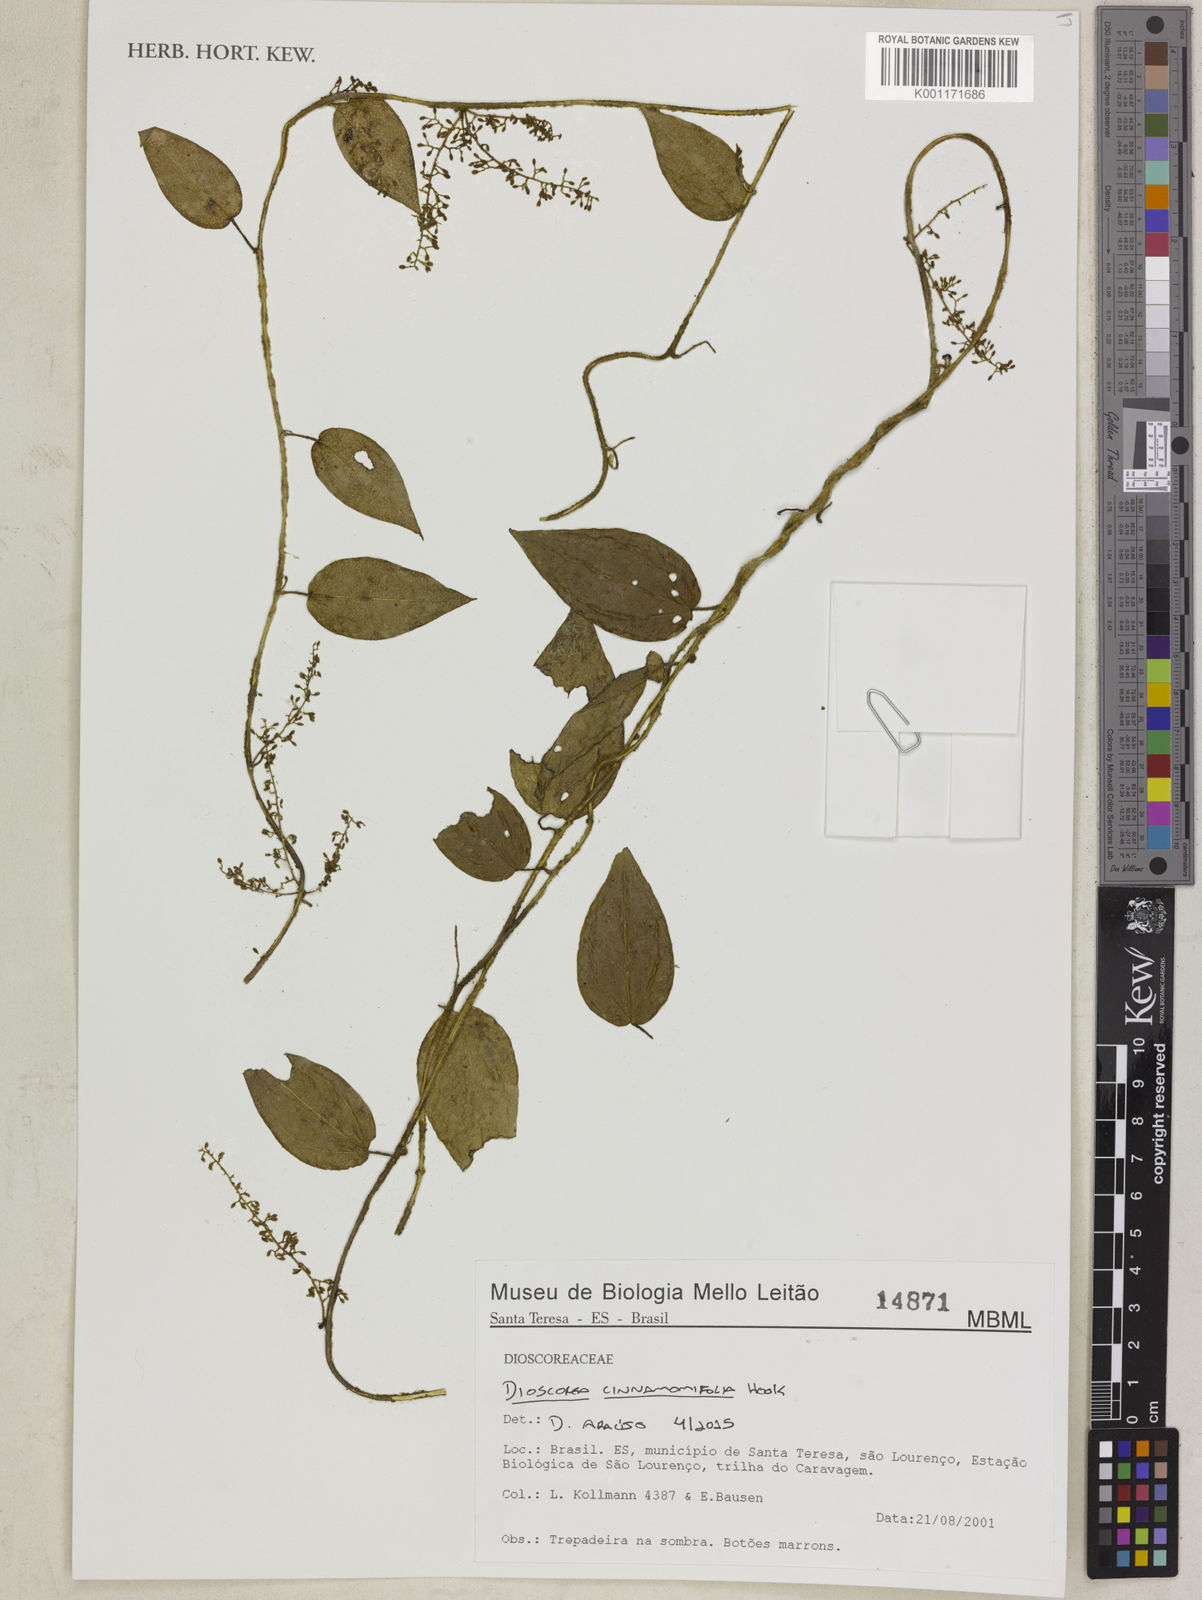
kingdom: Plantae
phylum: Tracheophyta
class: Liliopsida
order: Dioscoreales
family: Dioscoreaceae
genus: Dioscorea
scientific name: Dioscorea cinnamomifolia
